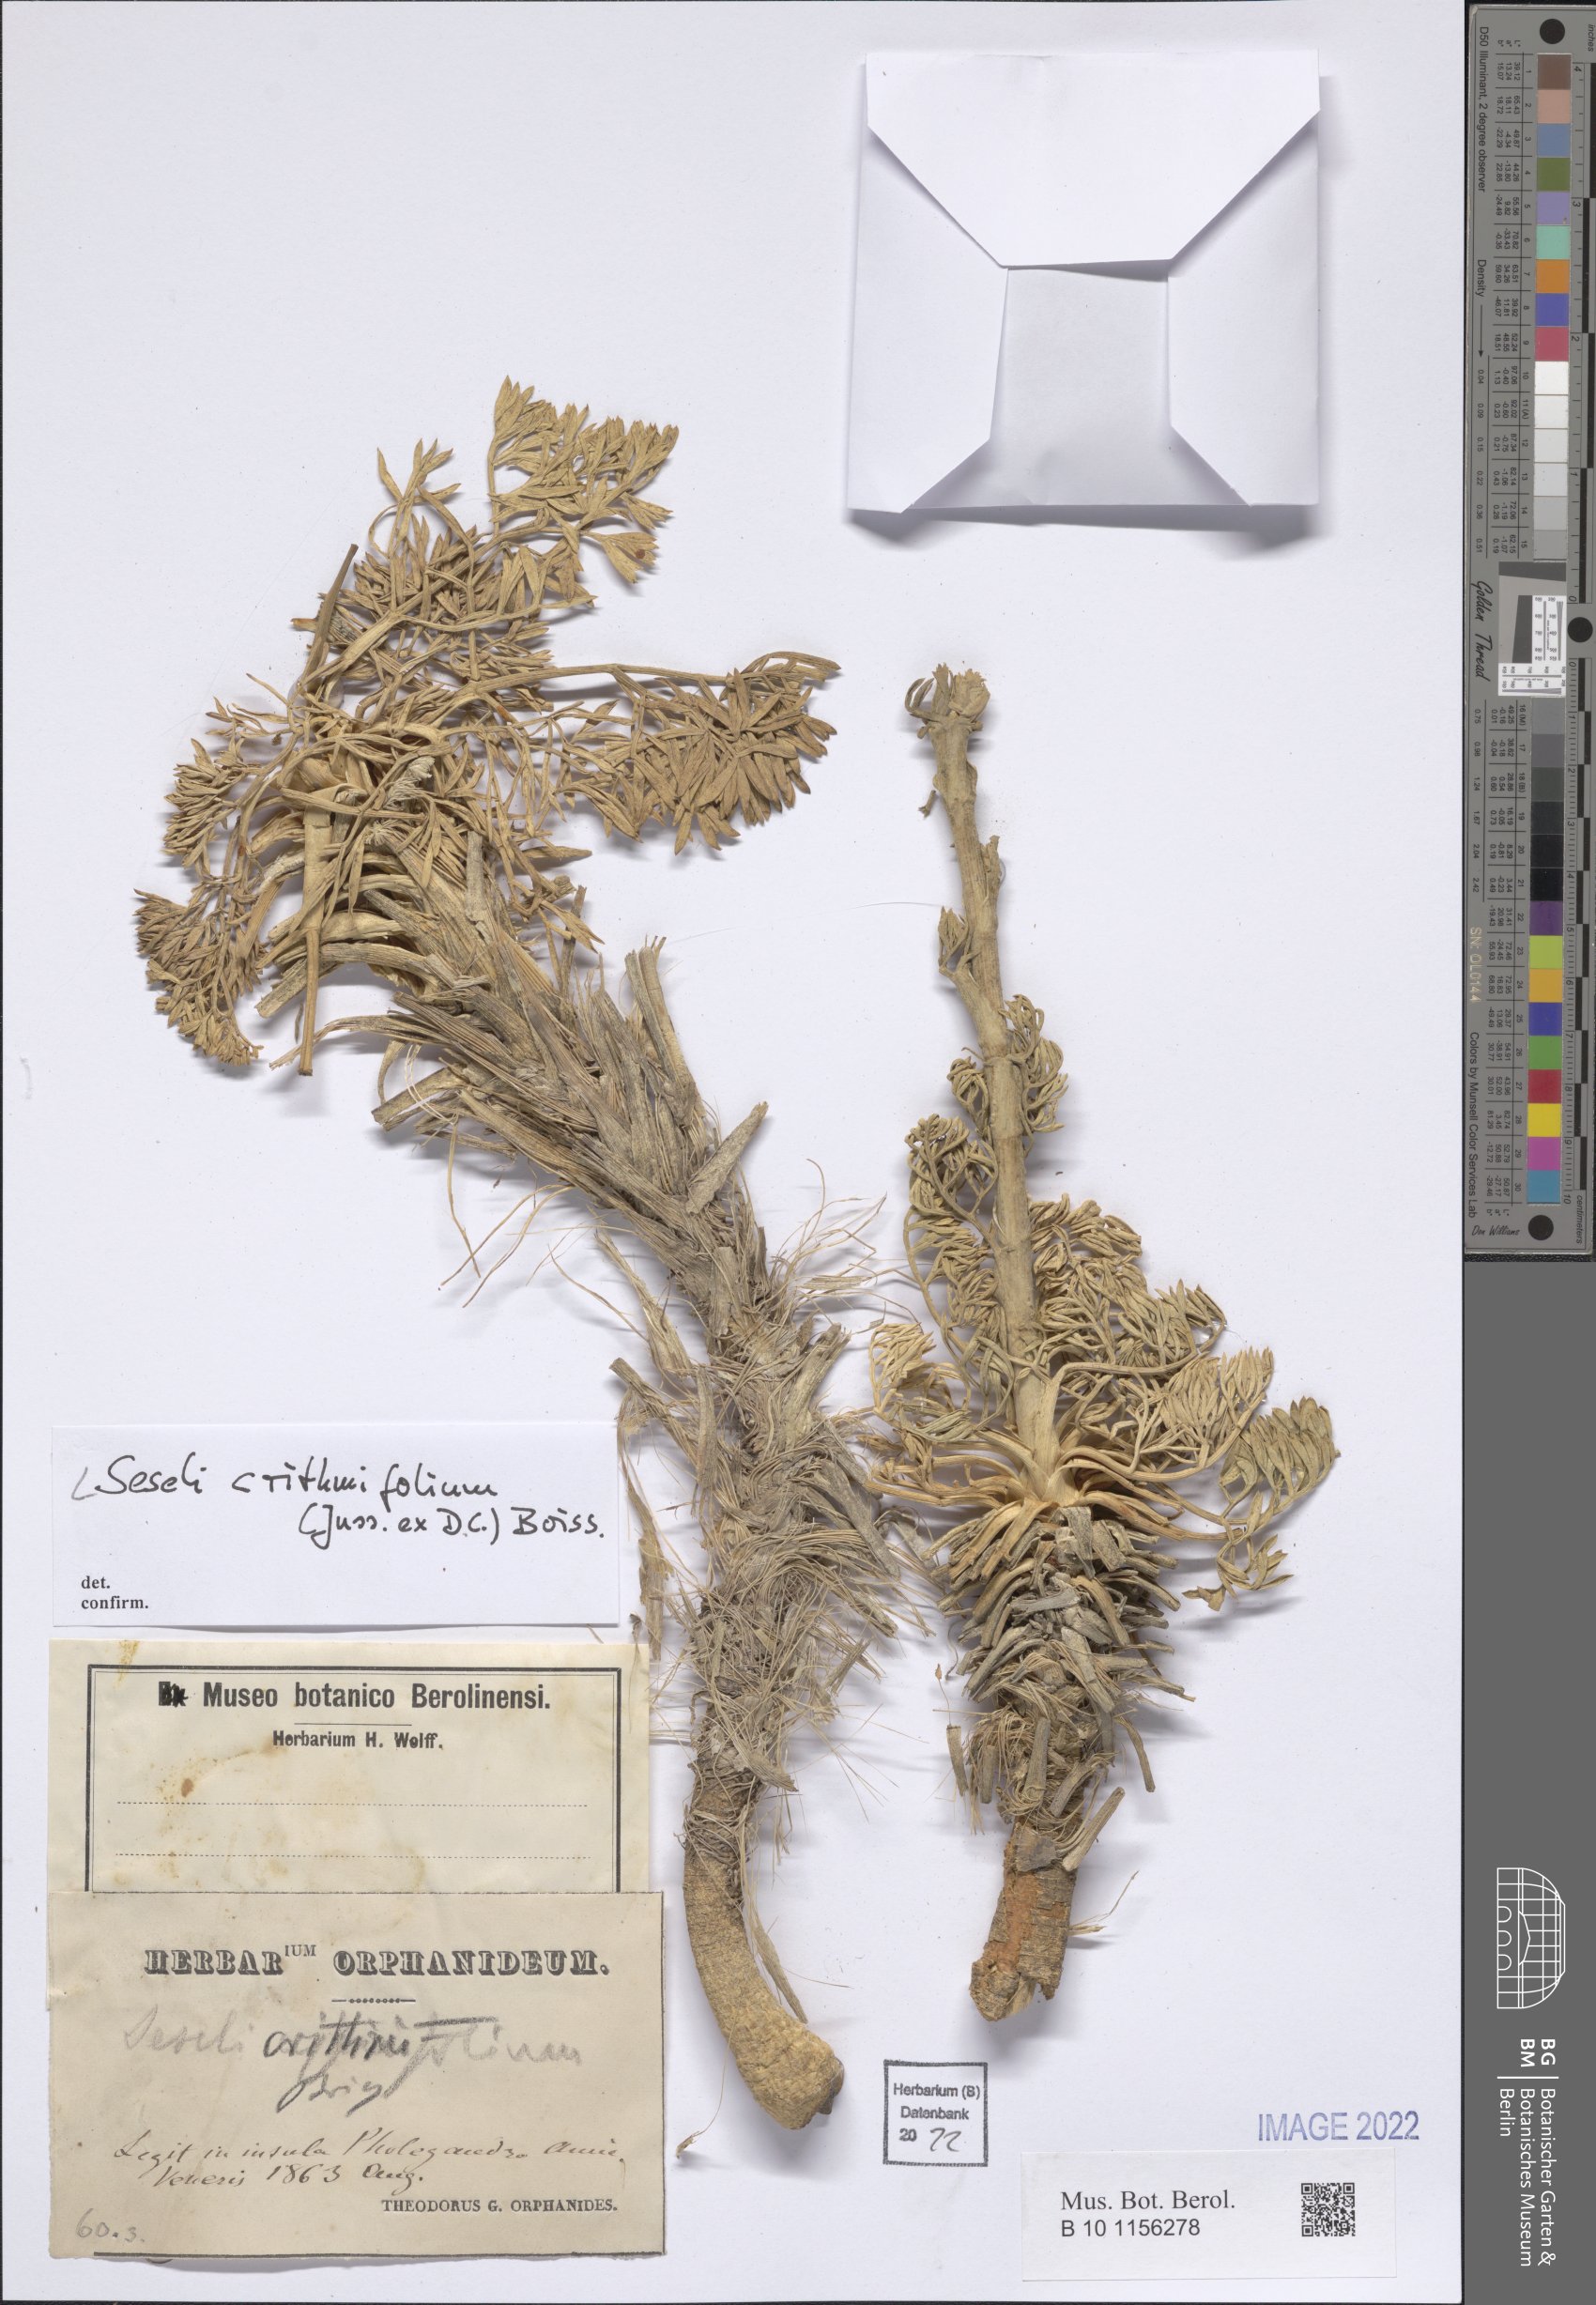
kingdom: Plantae
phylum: Tracheophyta
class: Magnoliopsida
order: Apiales
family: Apiaceae
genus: Seseli
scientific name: Seseli crithmifolium
